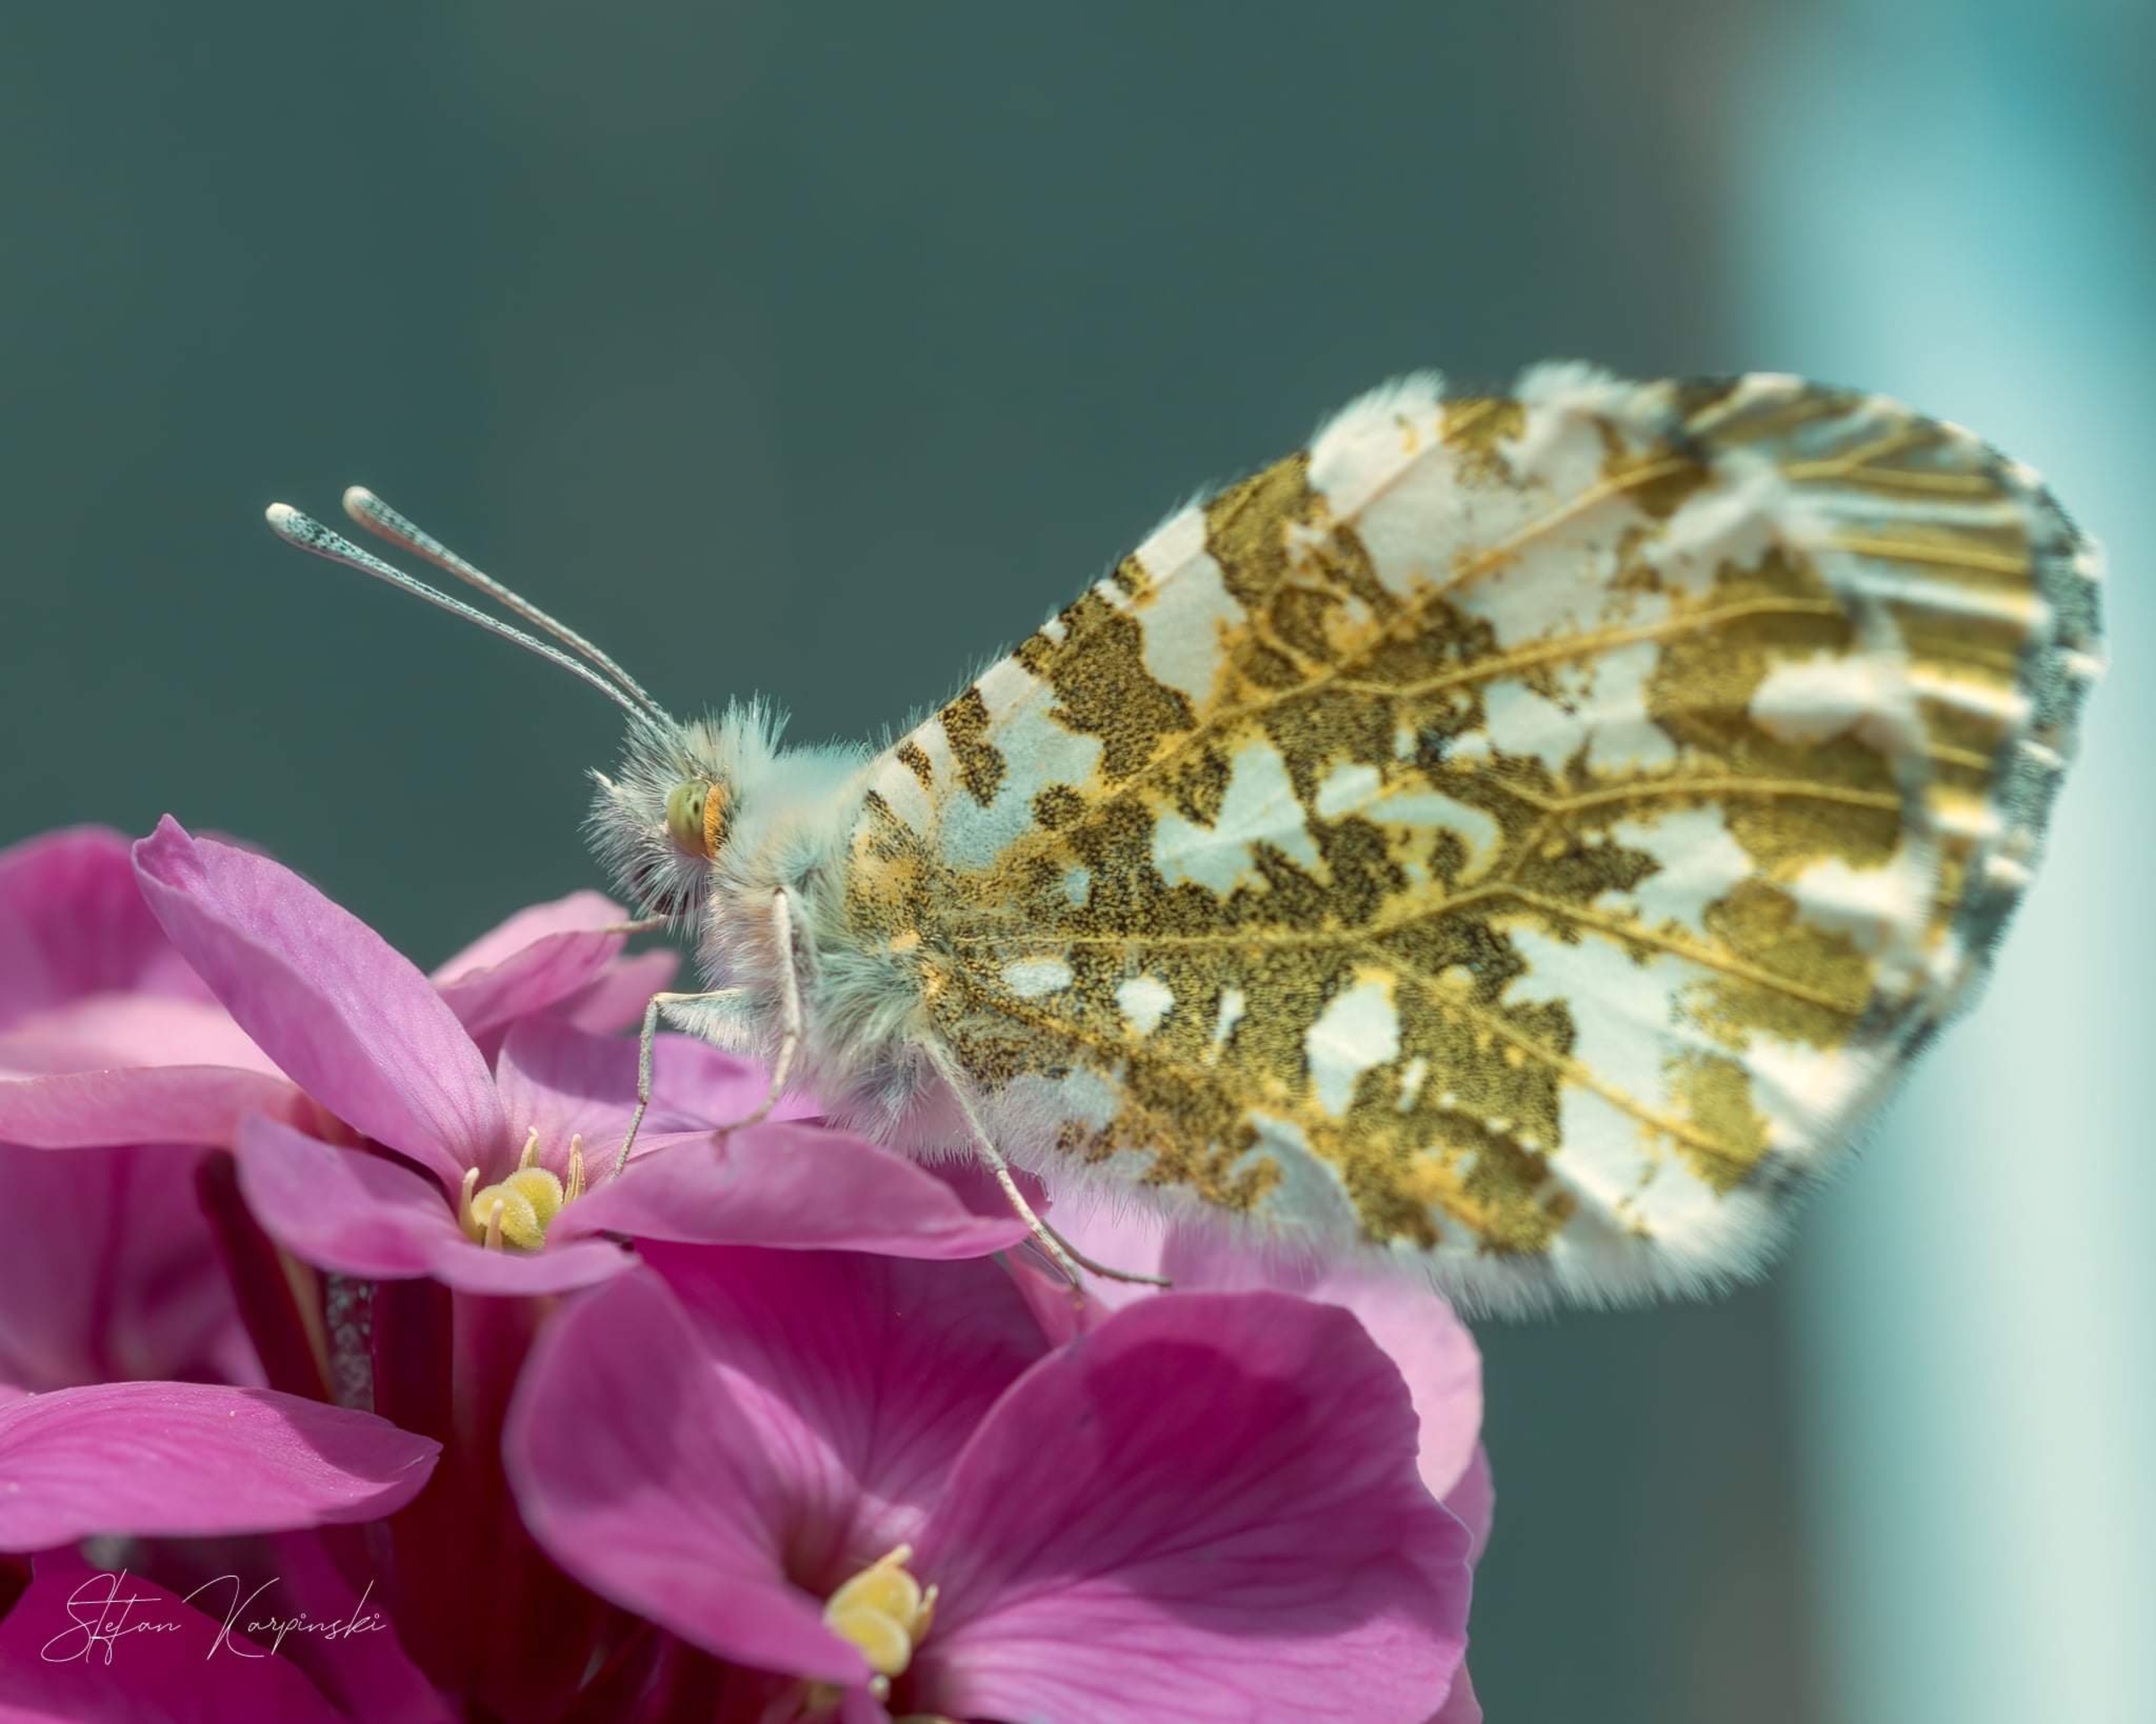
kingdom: Animalia
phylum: Arthropoda
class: Insecta
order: Lepidoptera
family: Pieridae
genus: Anthocharis
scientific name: Anthocharis cardamines
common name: Aurora
